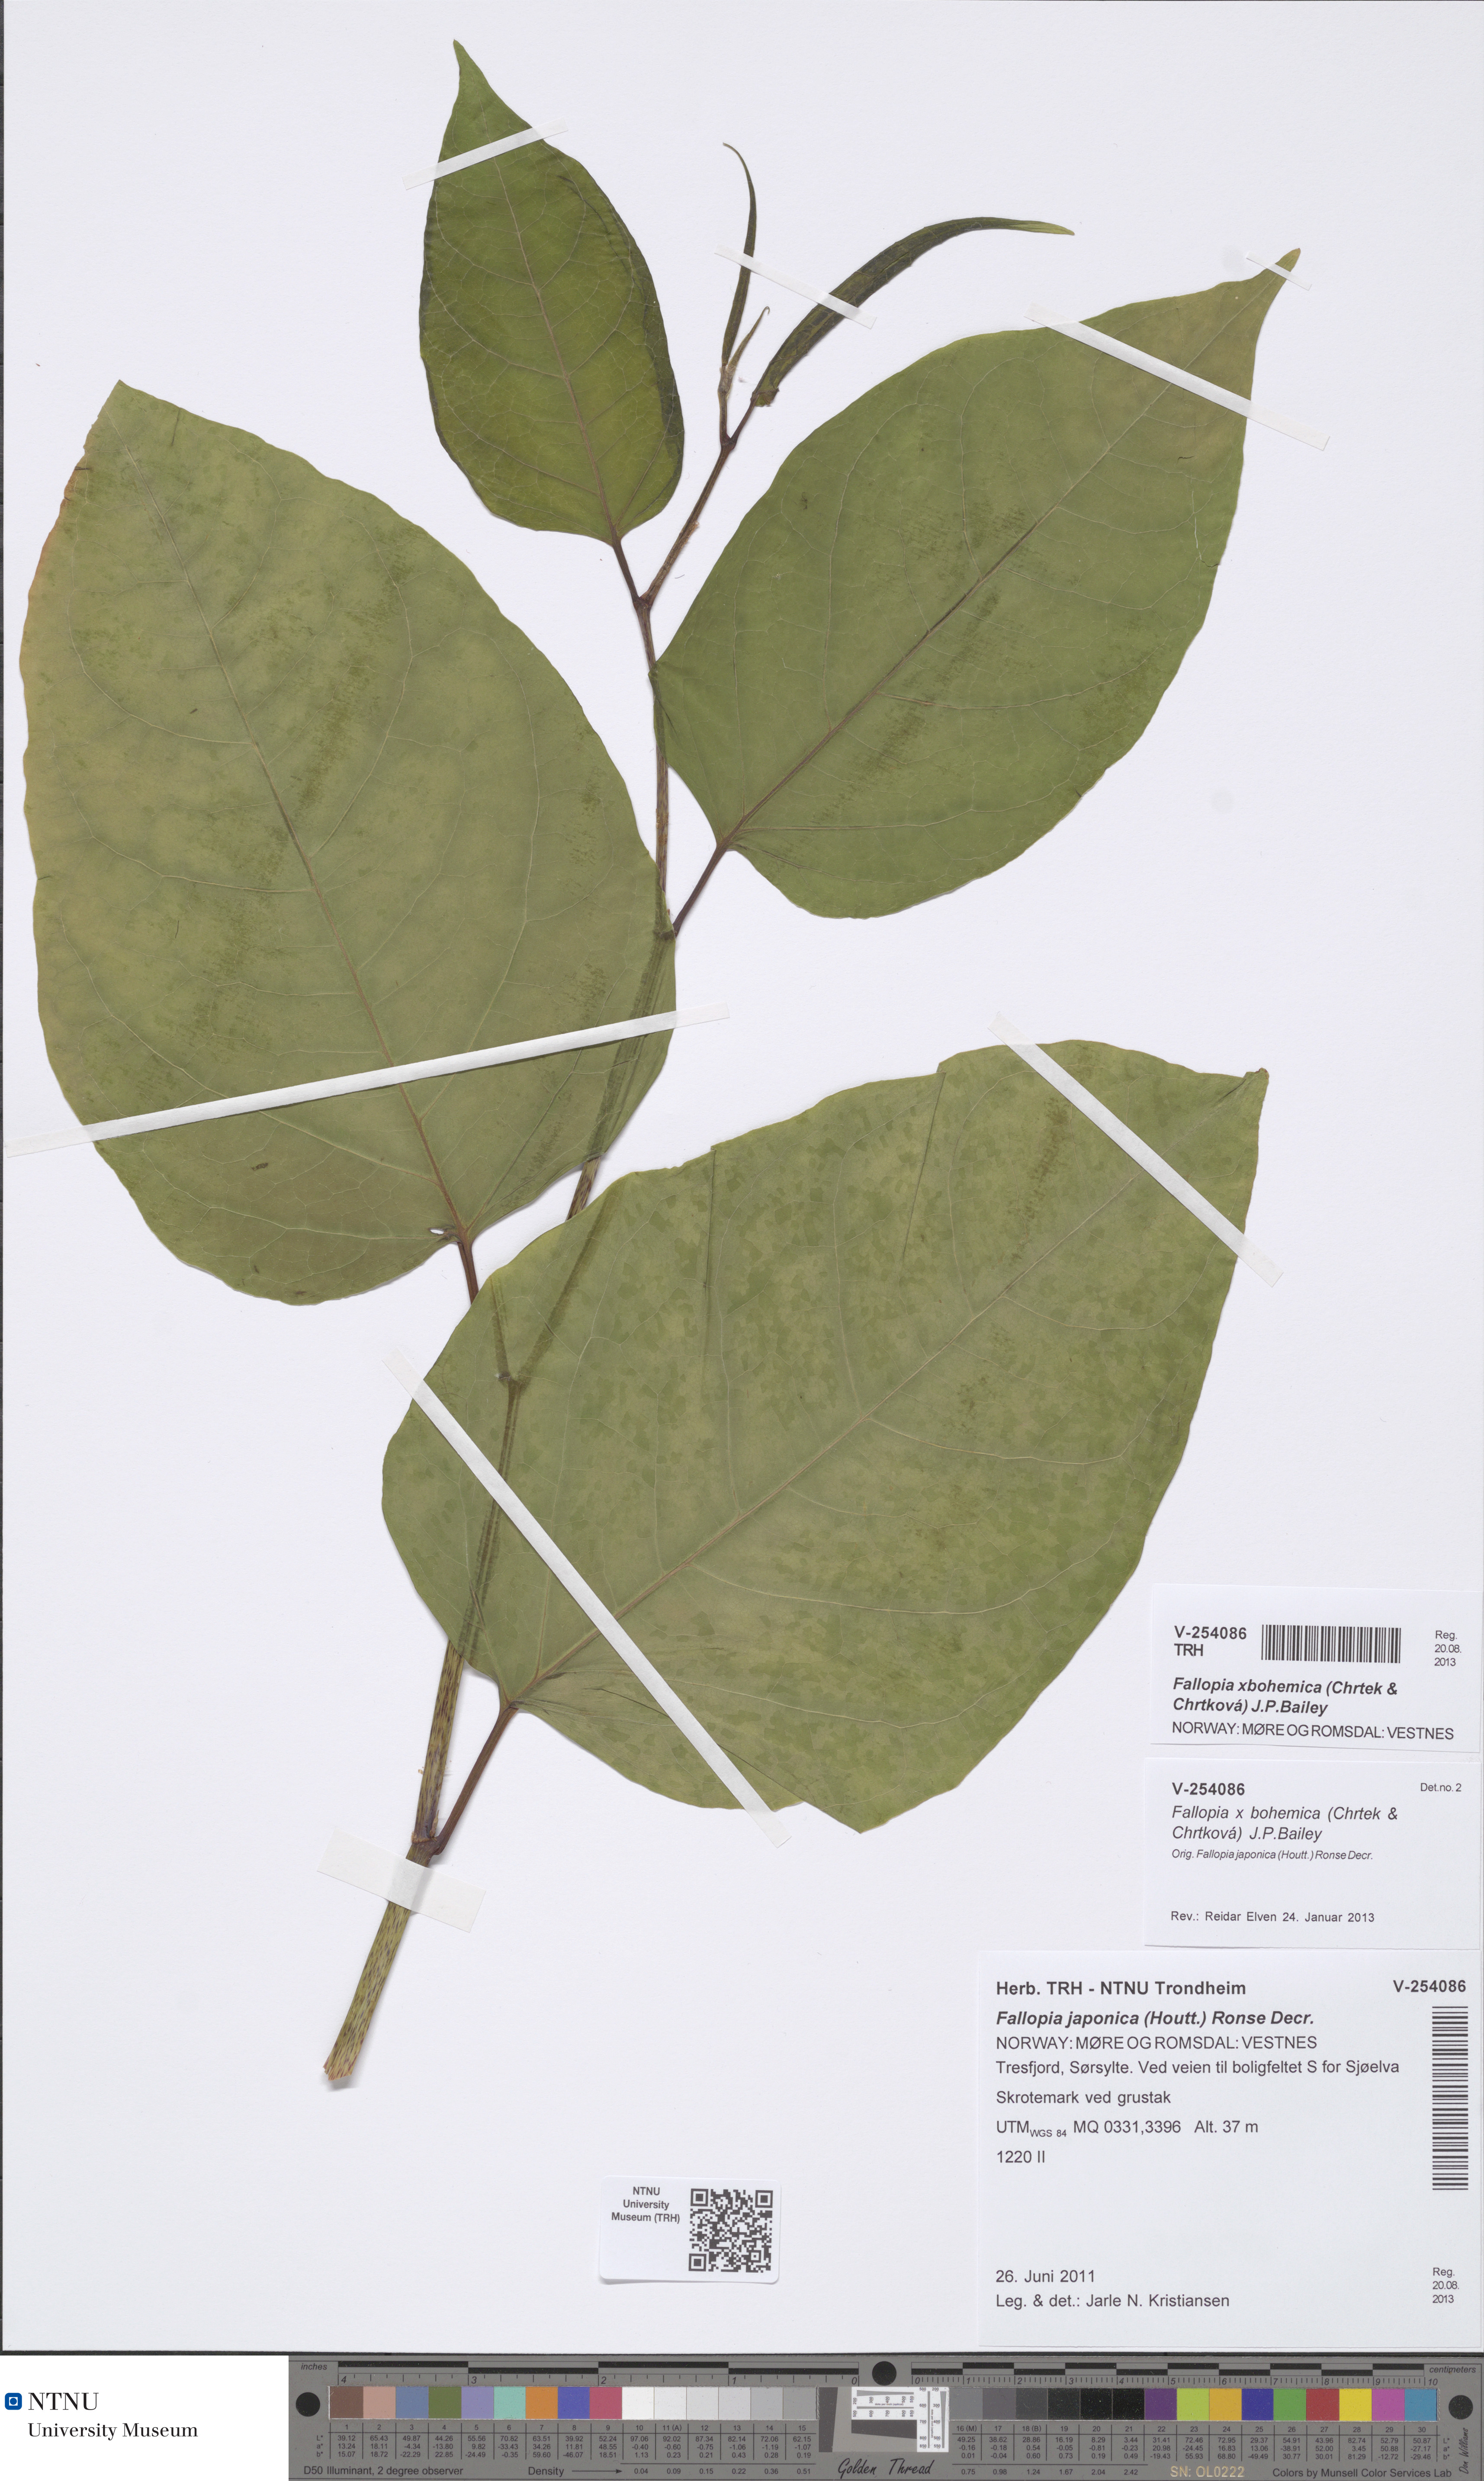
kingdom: Plantae
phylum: Tracheophyta
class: Magnoliopsida
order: Caryophyllales
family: Polygonaceae
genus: Reynoutria
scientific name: Reynoutria bohemica
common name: Bohemian knotweed
